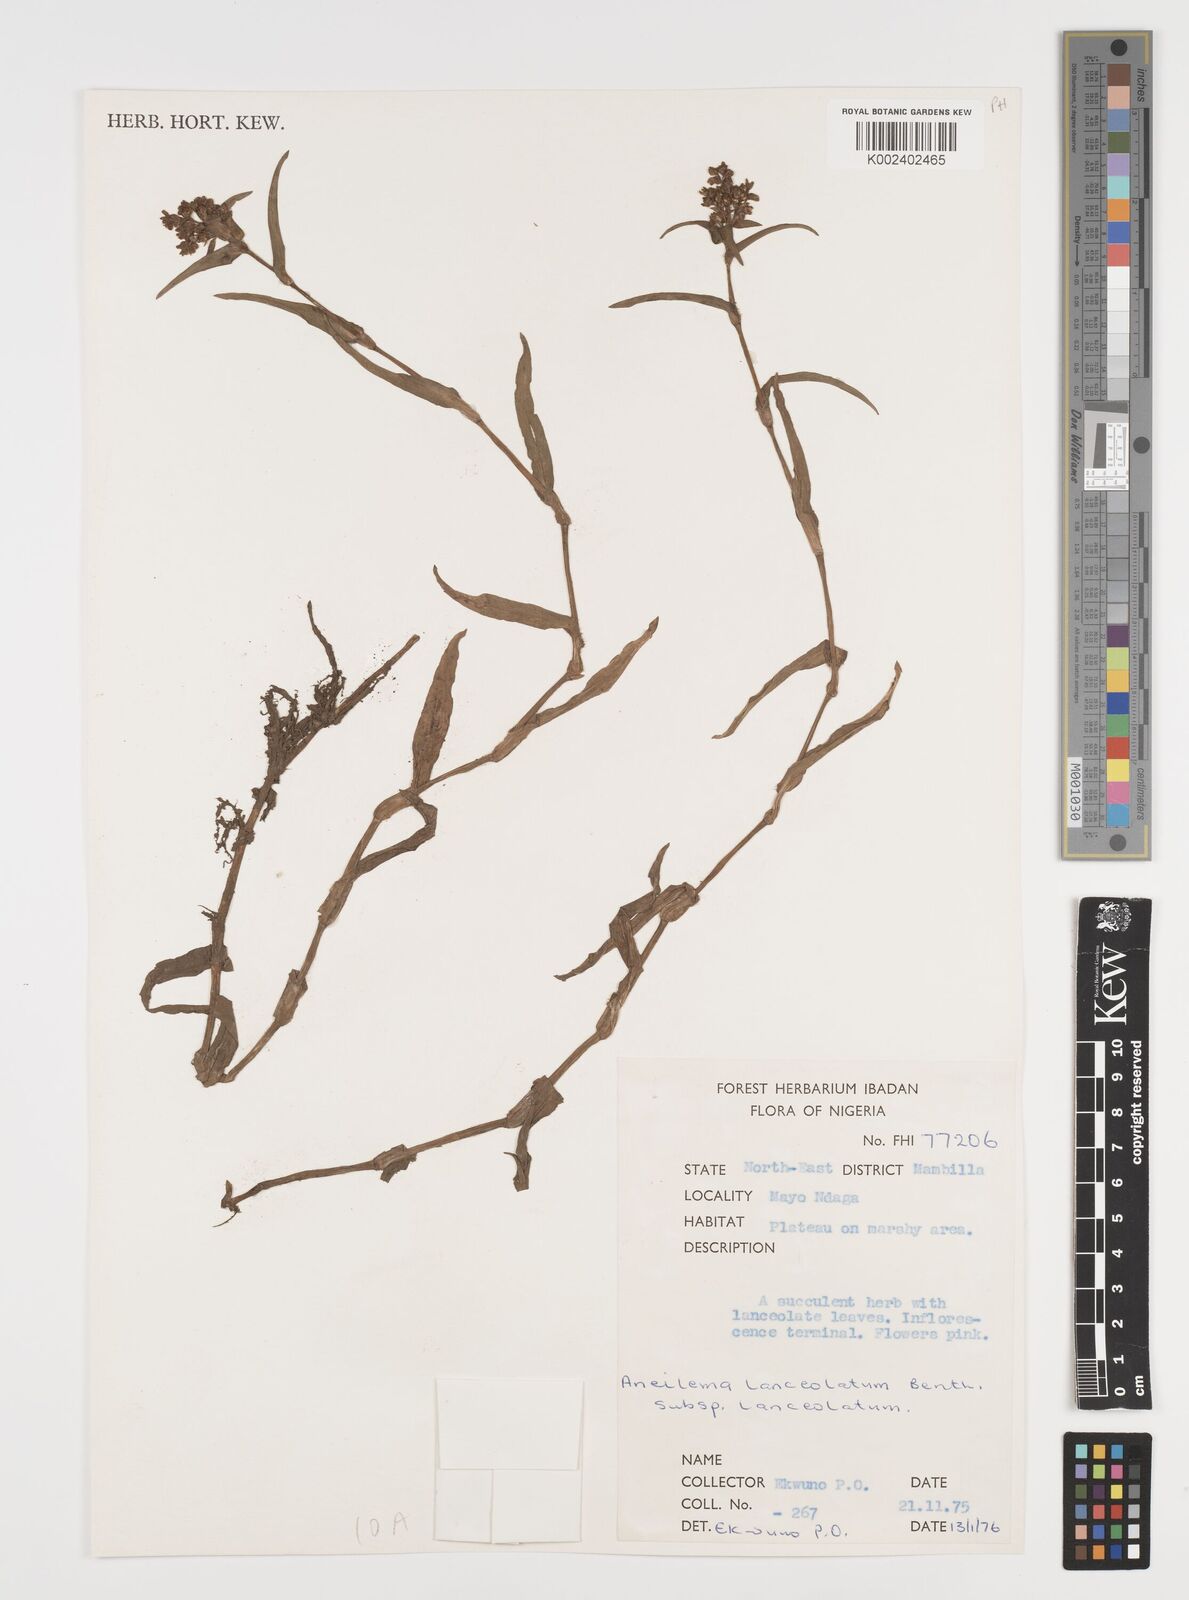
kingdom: Plantae
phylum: Tracheophyta
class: Liliopsida
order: Commelinales
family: Commelinaceae
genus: Murdannia
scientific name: Murdannia spirata
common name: Asiatic dewflower
